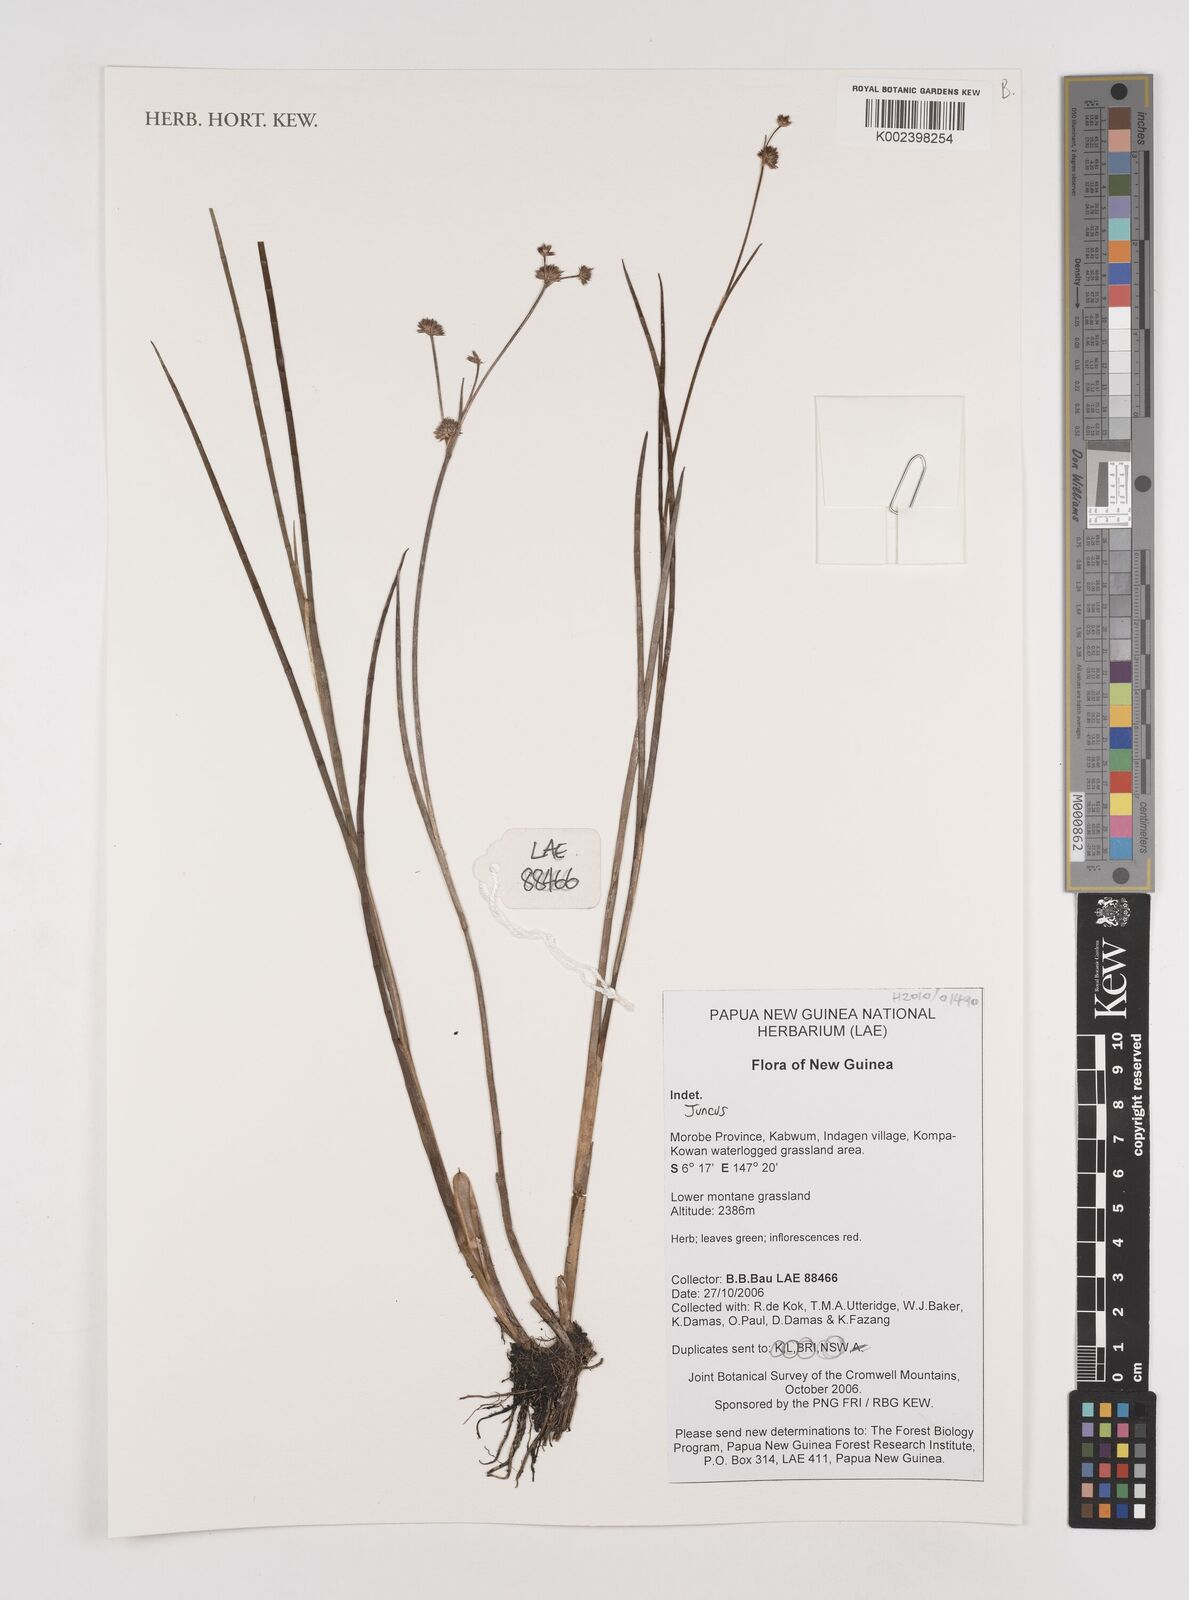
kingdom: Plantae
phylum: Tracheophyta
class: Liliopsida
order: Poales
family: Juncaceae
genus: Juncus
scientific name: Juncus
